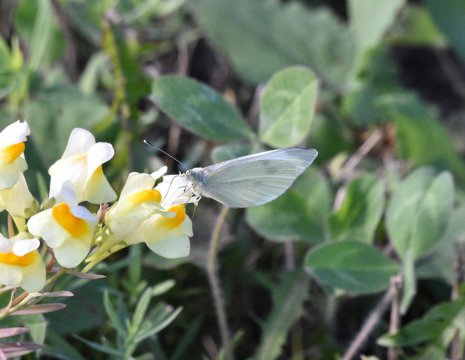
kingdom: Animalia
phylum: Arthropoda
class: Insecta
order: Lepidoptera
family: Pieridae
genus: Pieris
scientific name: Pieris rapae
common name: Cabbage White
